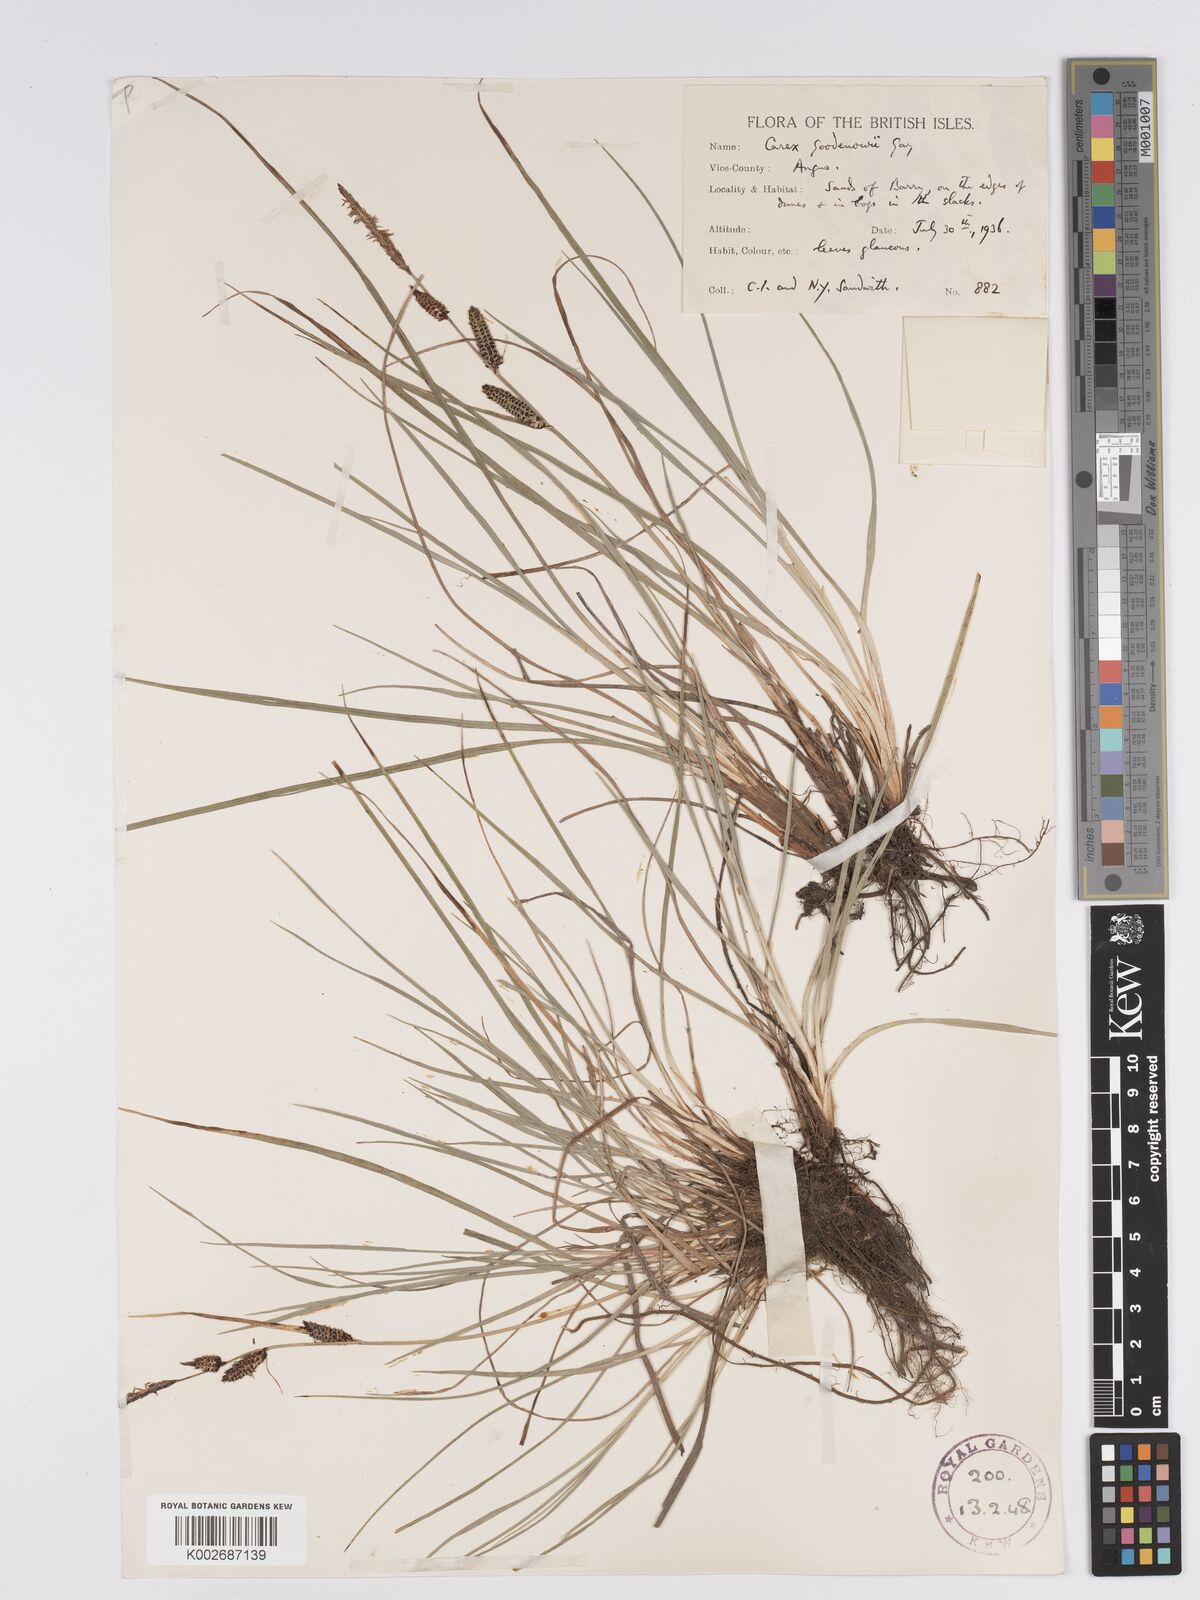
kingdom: Plantae
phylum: Tracheophyta
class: Liliopsida
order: Poales
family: Cyperaceae
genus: Carex
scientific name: Carex nigra
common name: Common sedge
